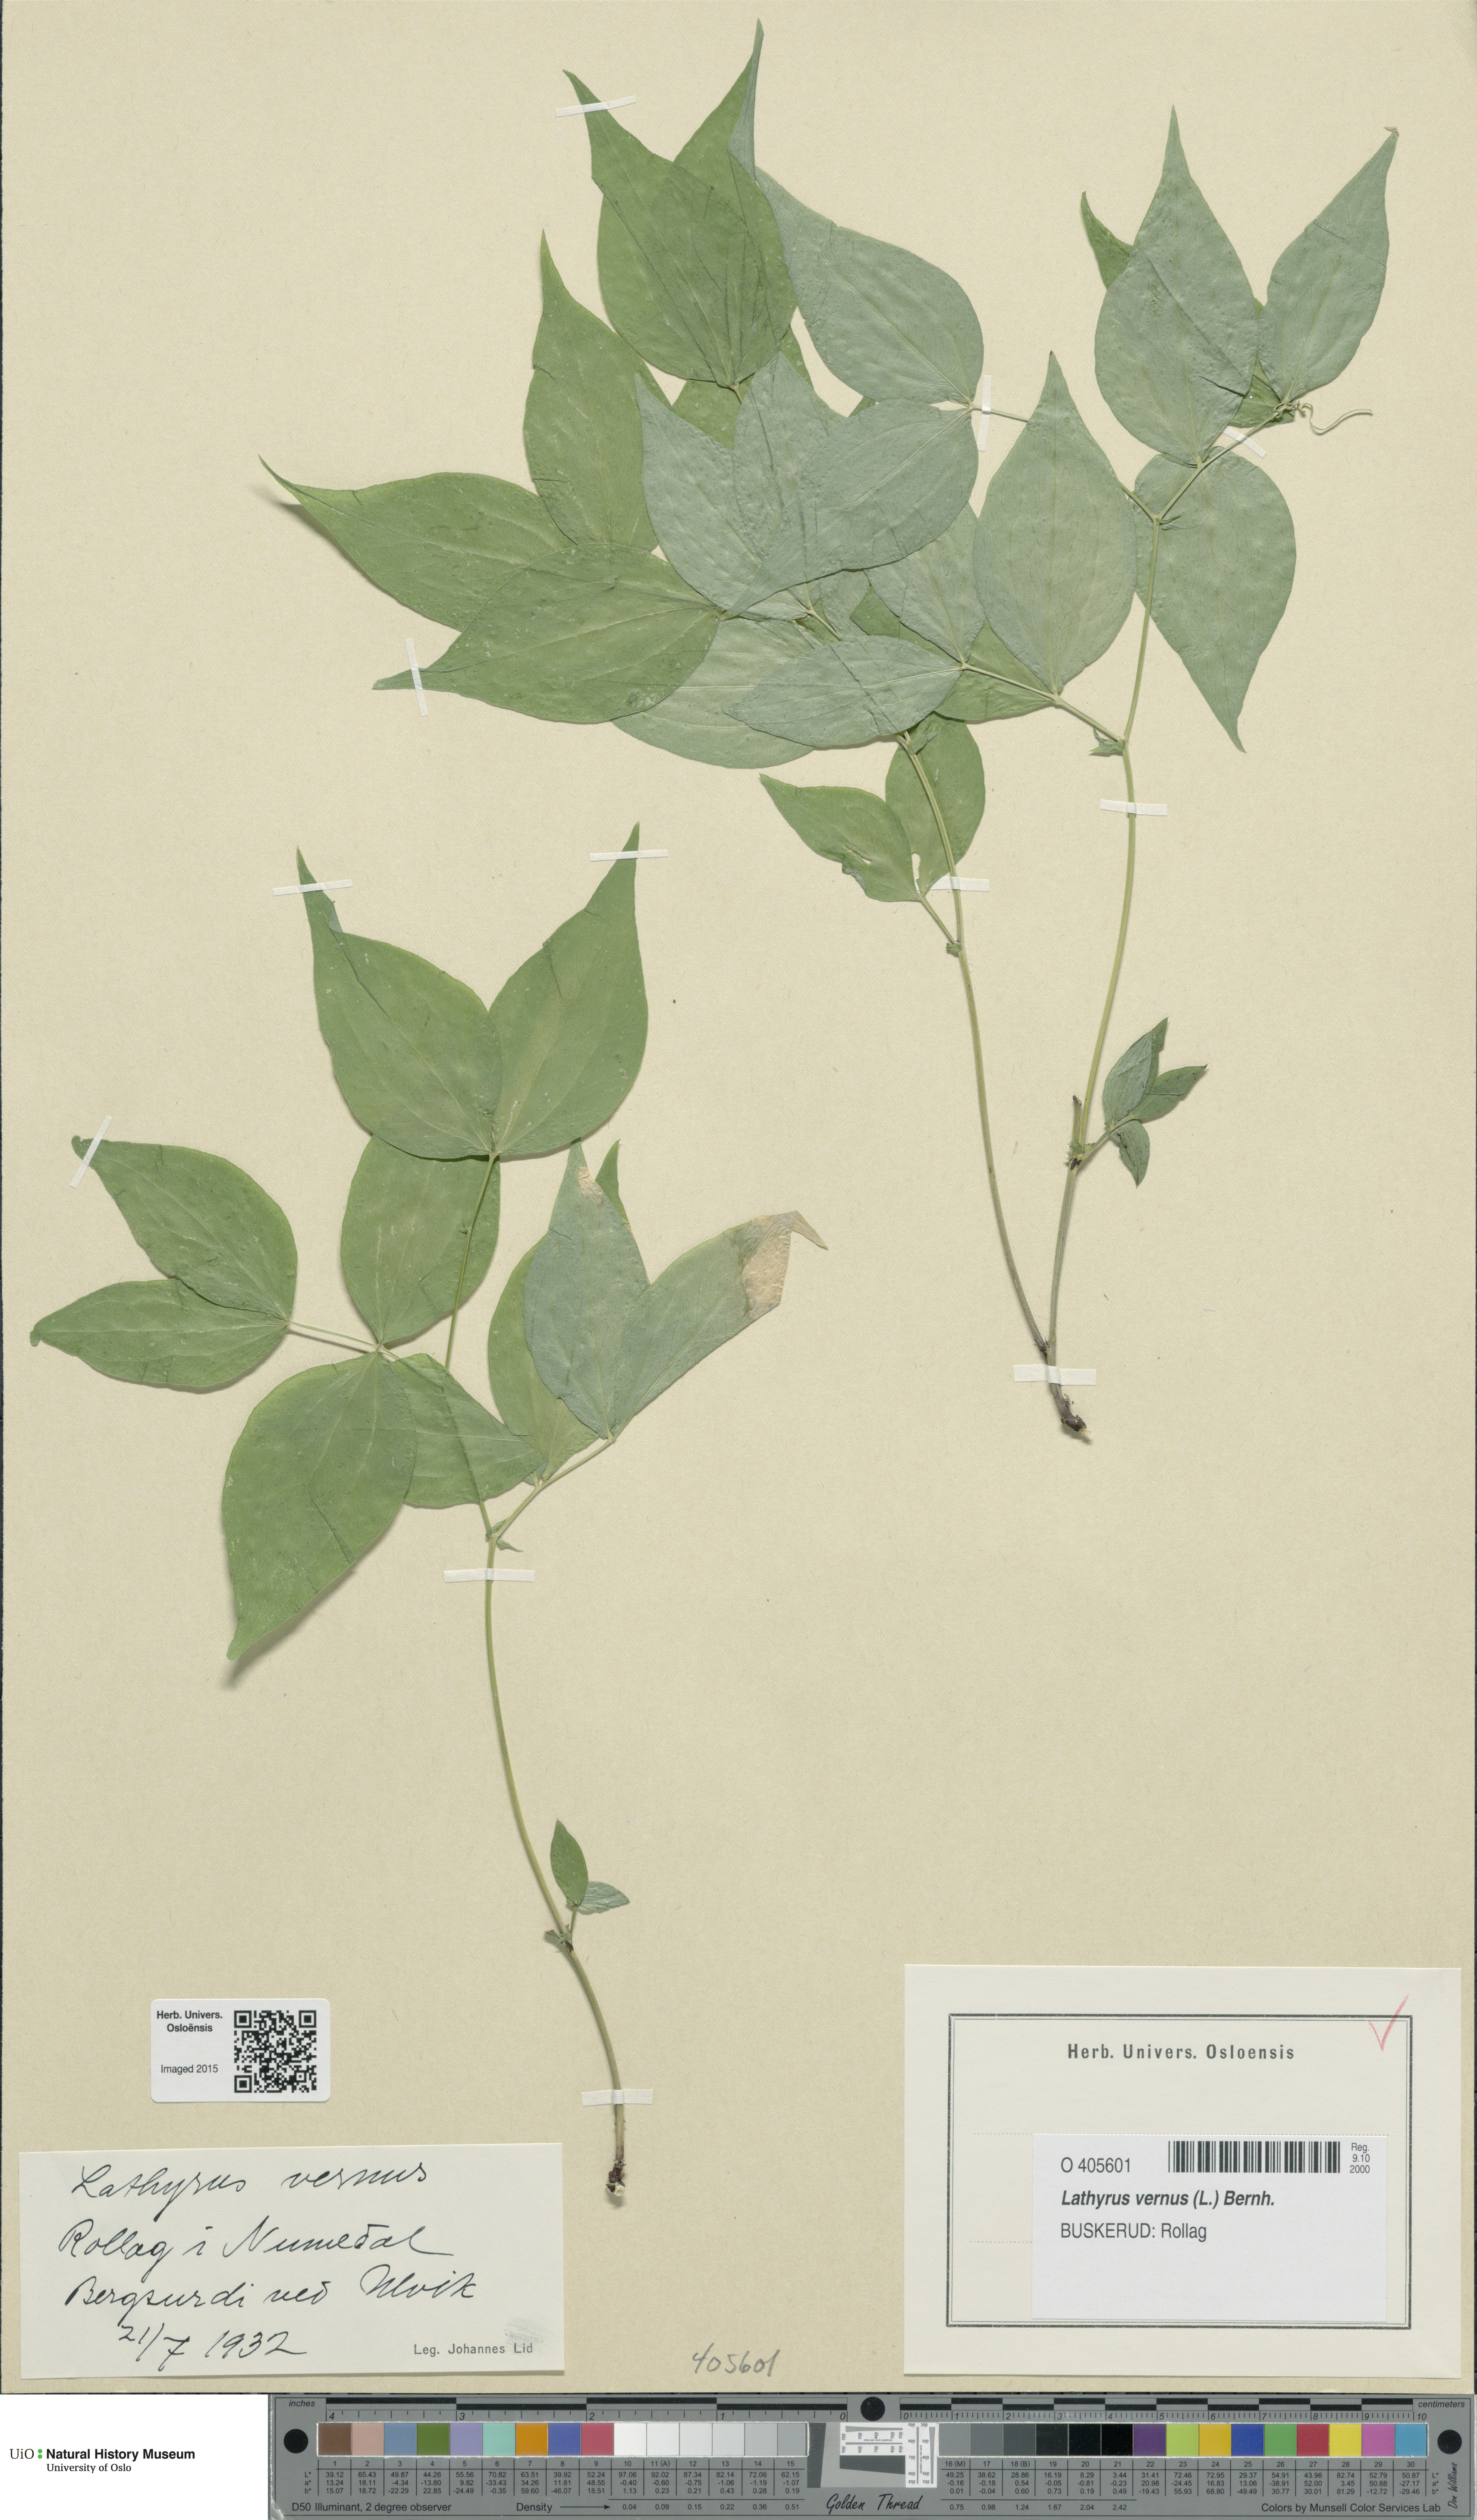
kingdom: Plantae
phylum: Tracheophyta
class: Magnoliopsida
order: Fabales
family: Fabaceae
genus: Lathyrus
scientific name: Lathyrus vernus
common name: Spring pea
